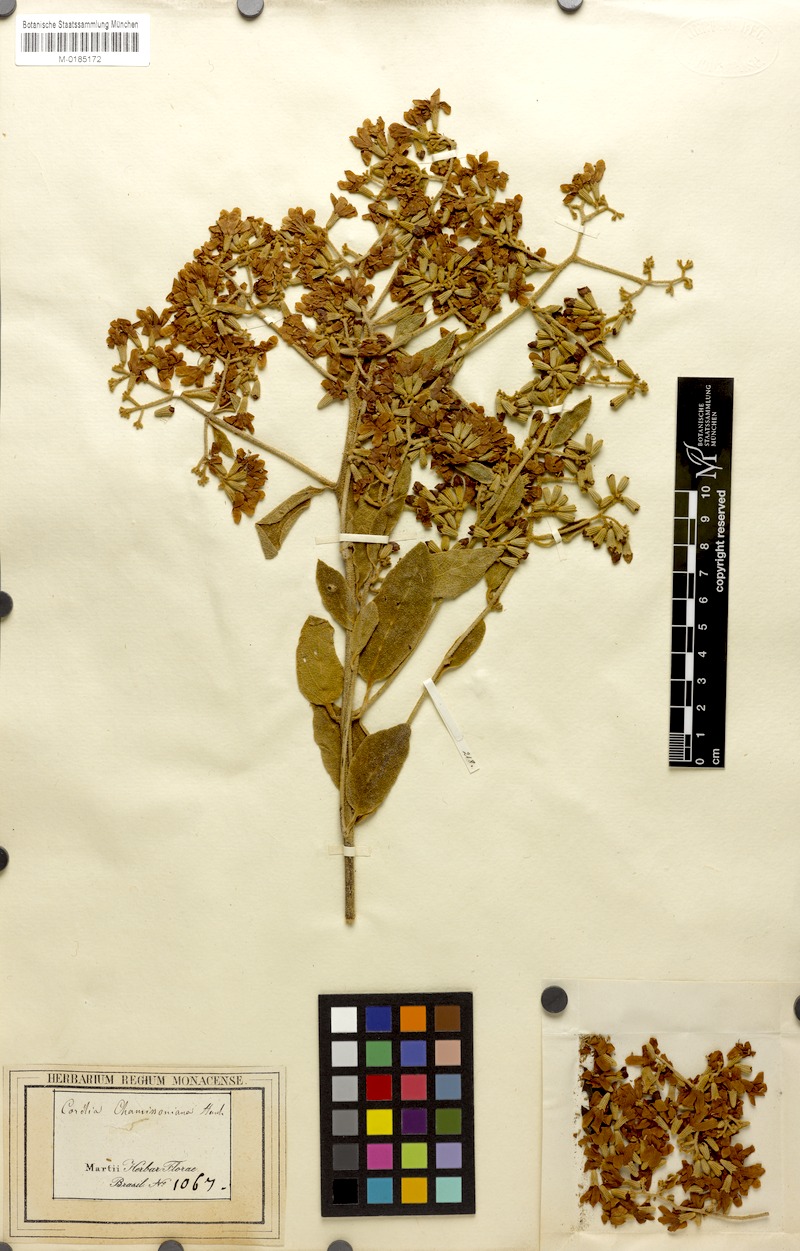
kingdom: Plantae
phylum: Tracheophyta
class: Magnoliopsida
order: Boraginales
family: Cordiaceae
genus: Cordia
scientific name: Cordia trichotoma
